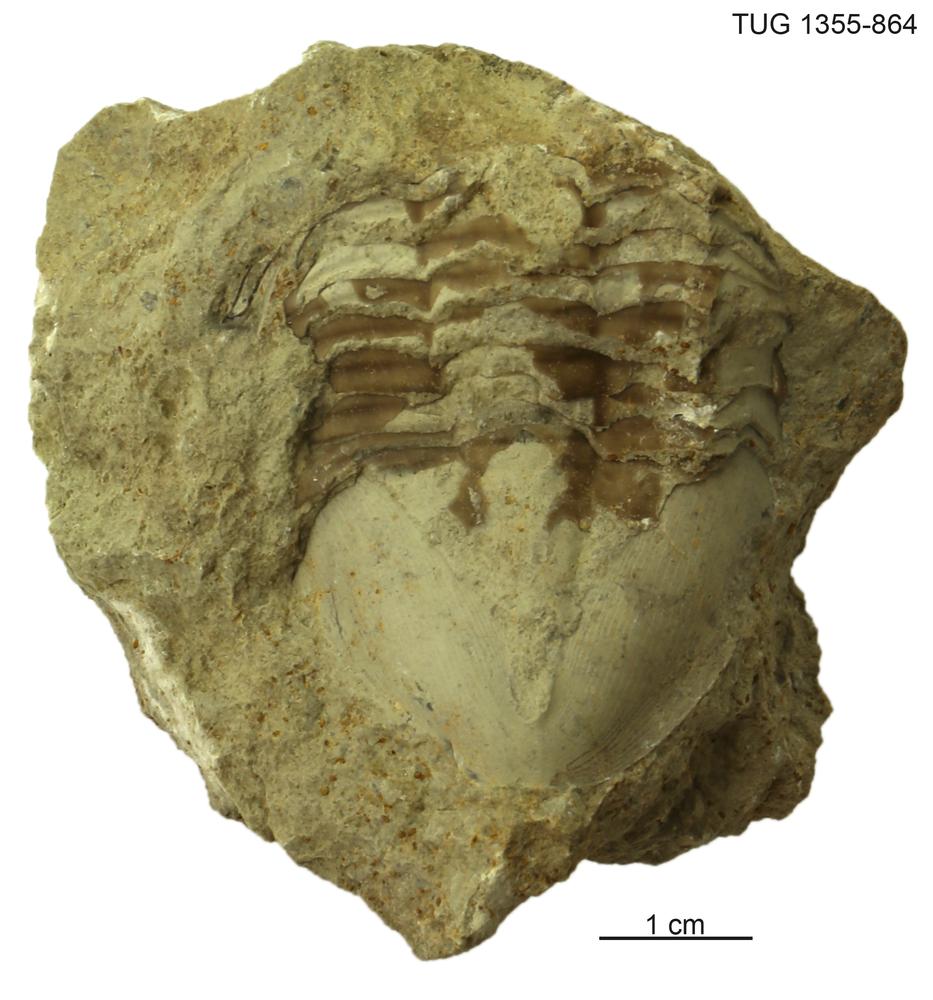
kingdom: Animalia
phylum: Arthropoda
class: Trilobita
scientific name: Trilobita
